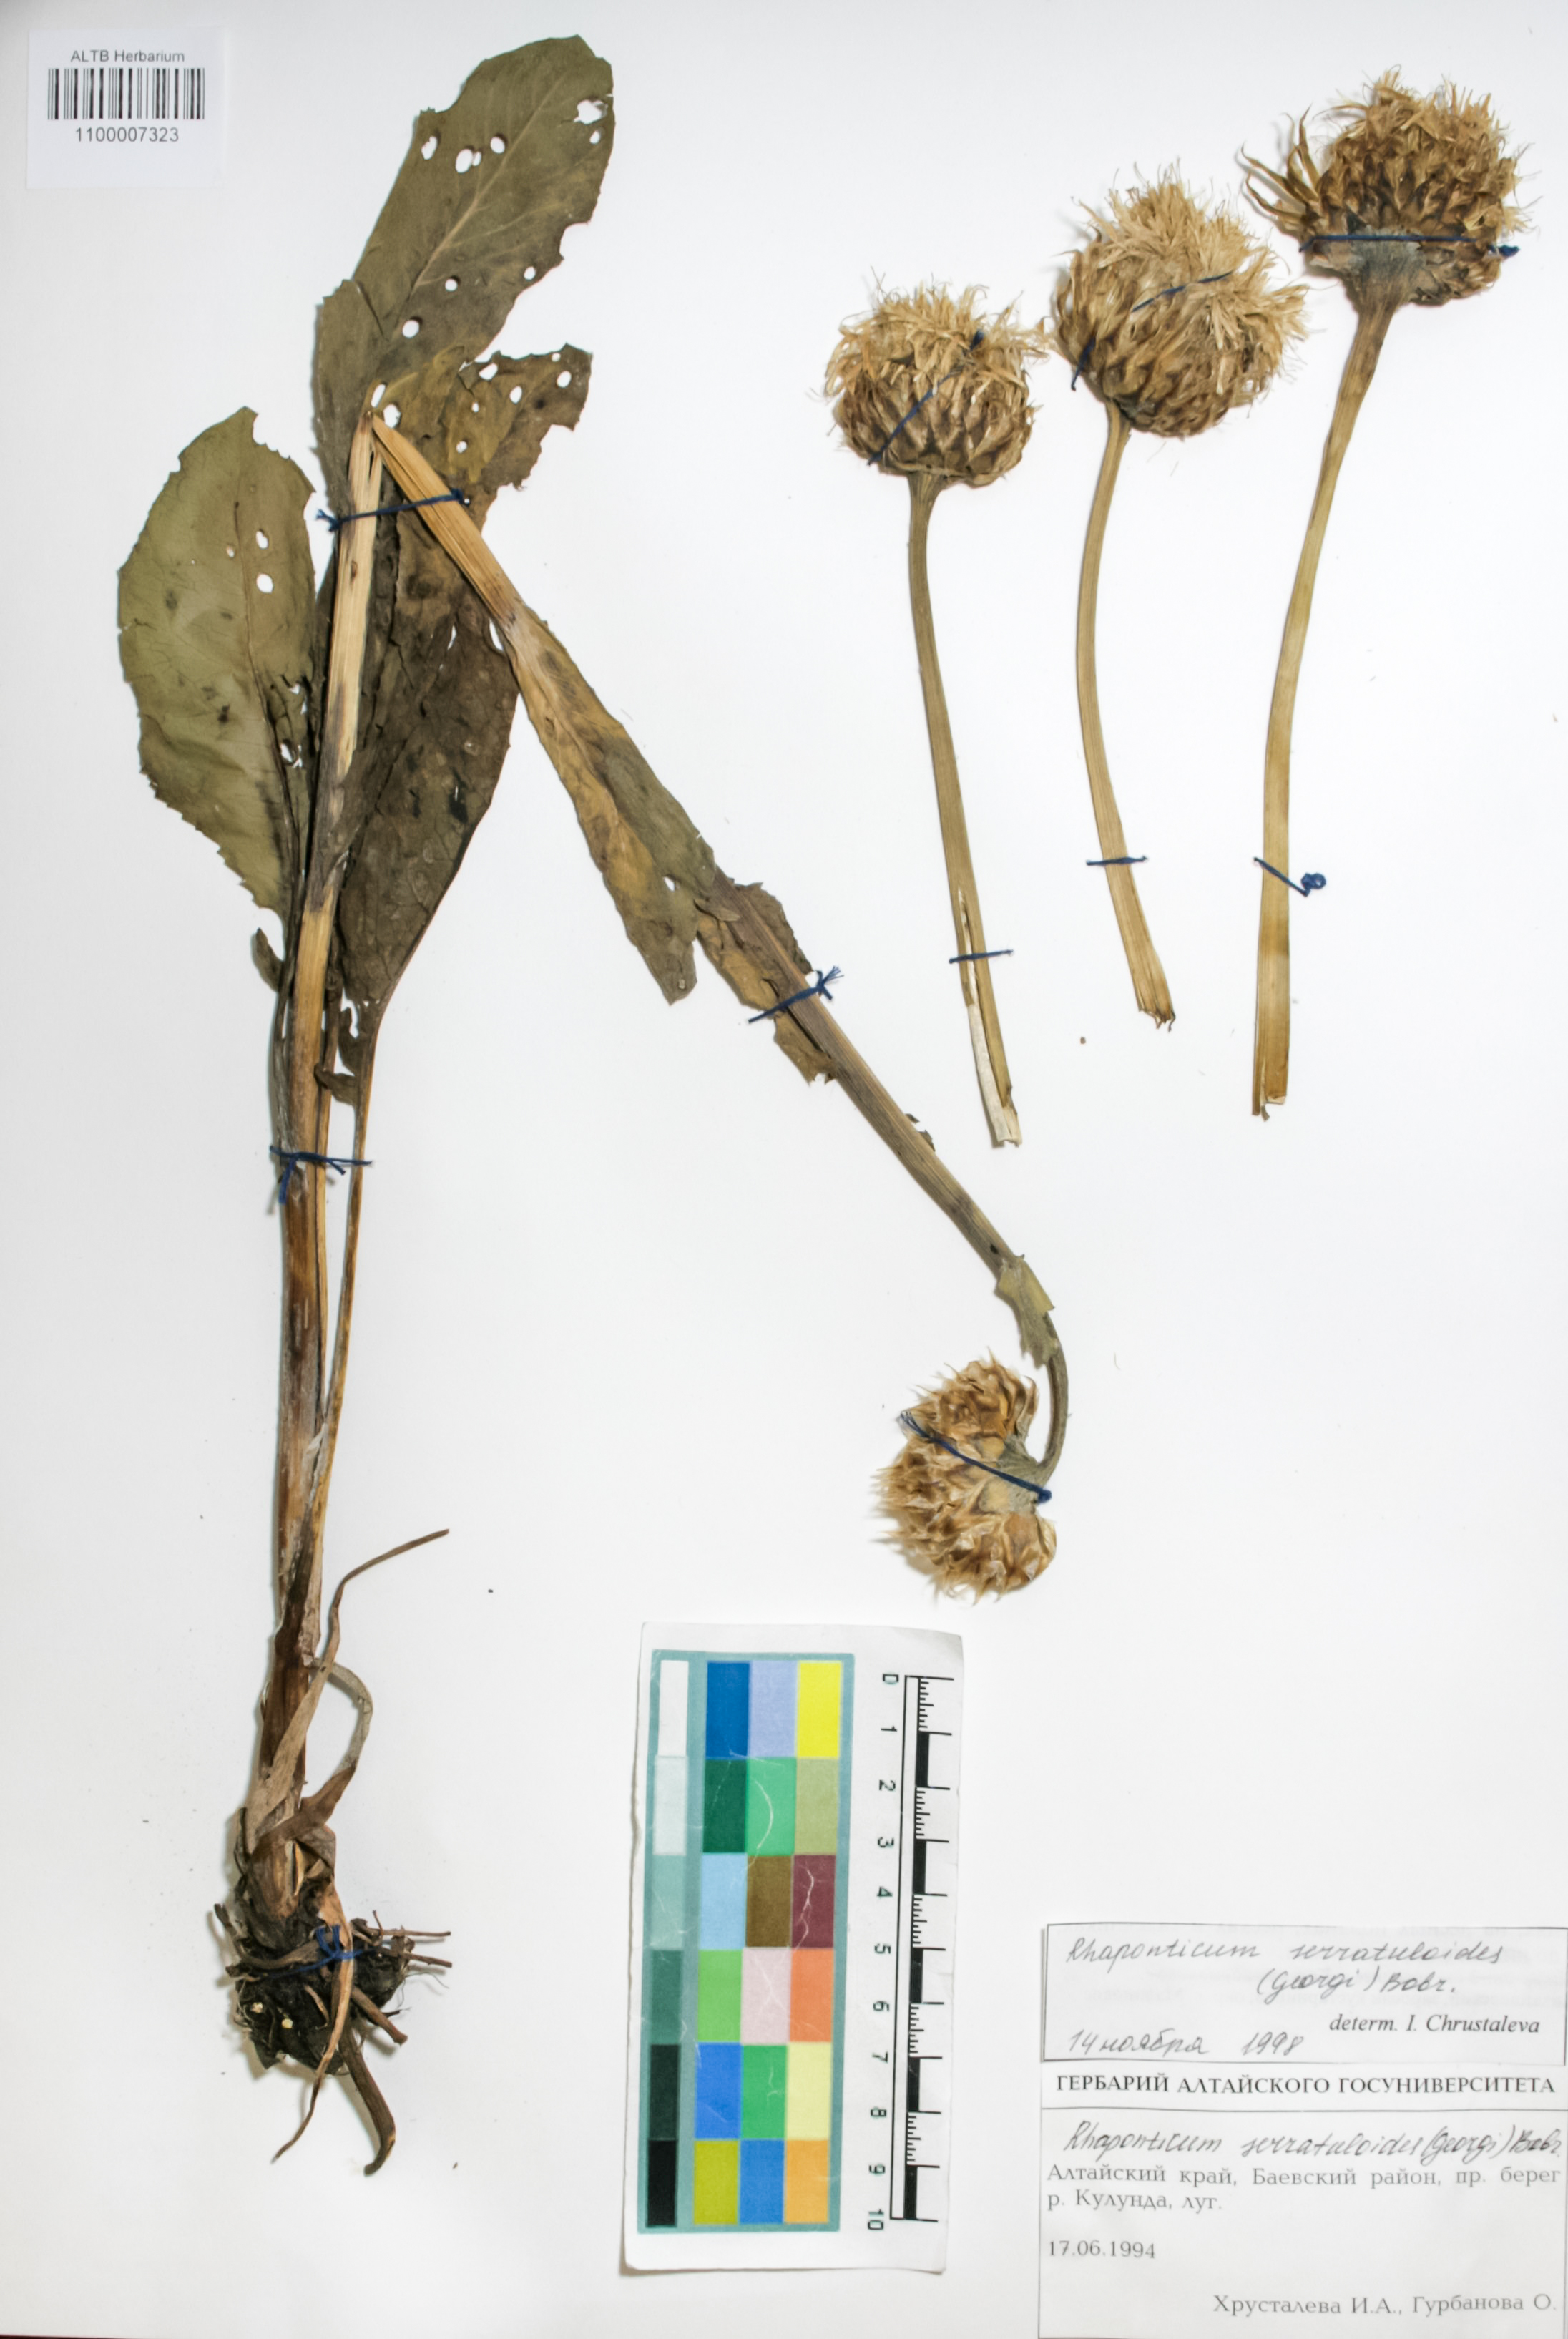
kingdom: Plantae
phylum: Tracheophyta
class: Magnoliopsida
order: Asterales
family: Asteraceae
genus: Leuzea
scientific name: Leuzea altaica
